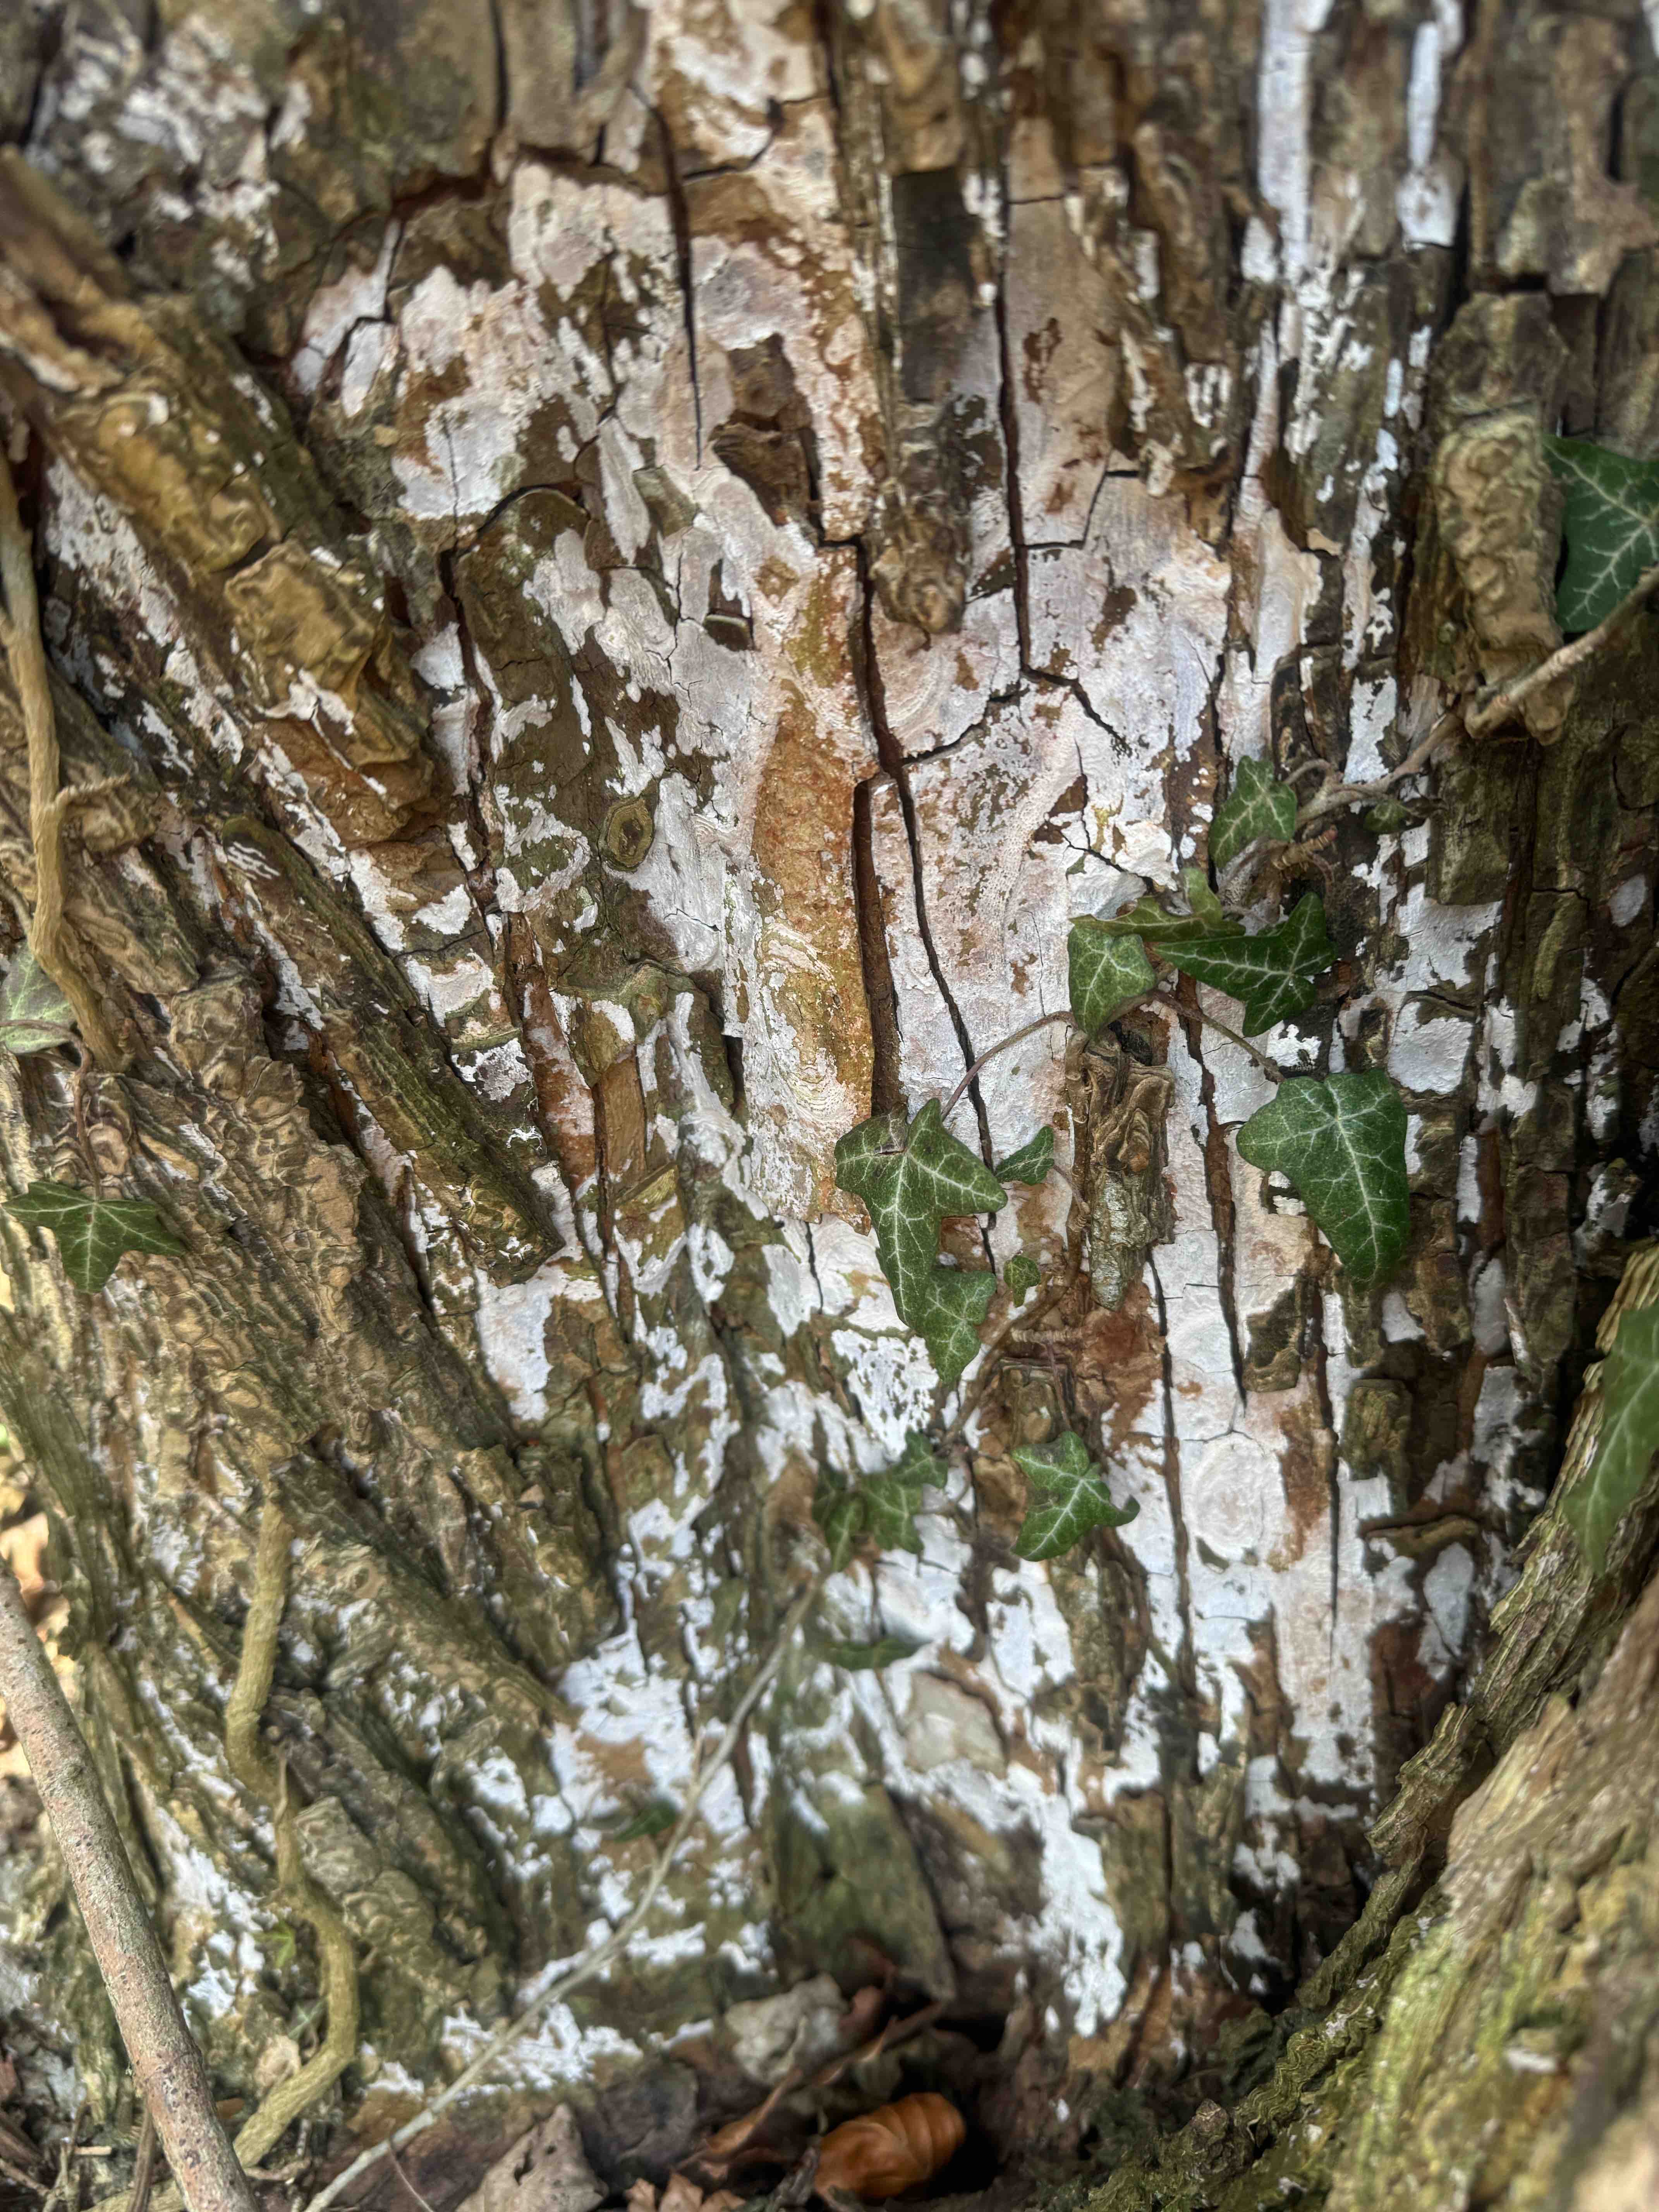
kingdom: Fungi
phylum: Basidiomycota
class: Agaricomycetes
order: Agaricales
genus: Dendrothele
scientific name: Dendrothele acerina
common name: navr-kalkplet
